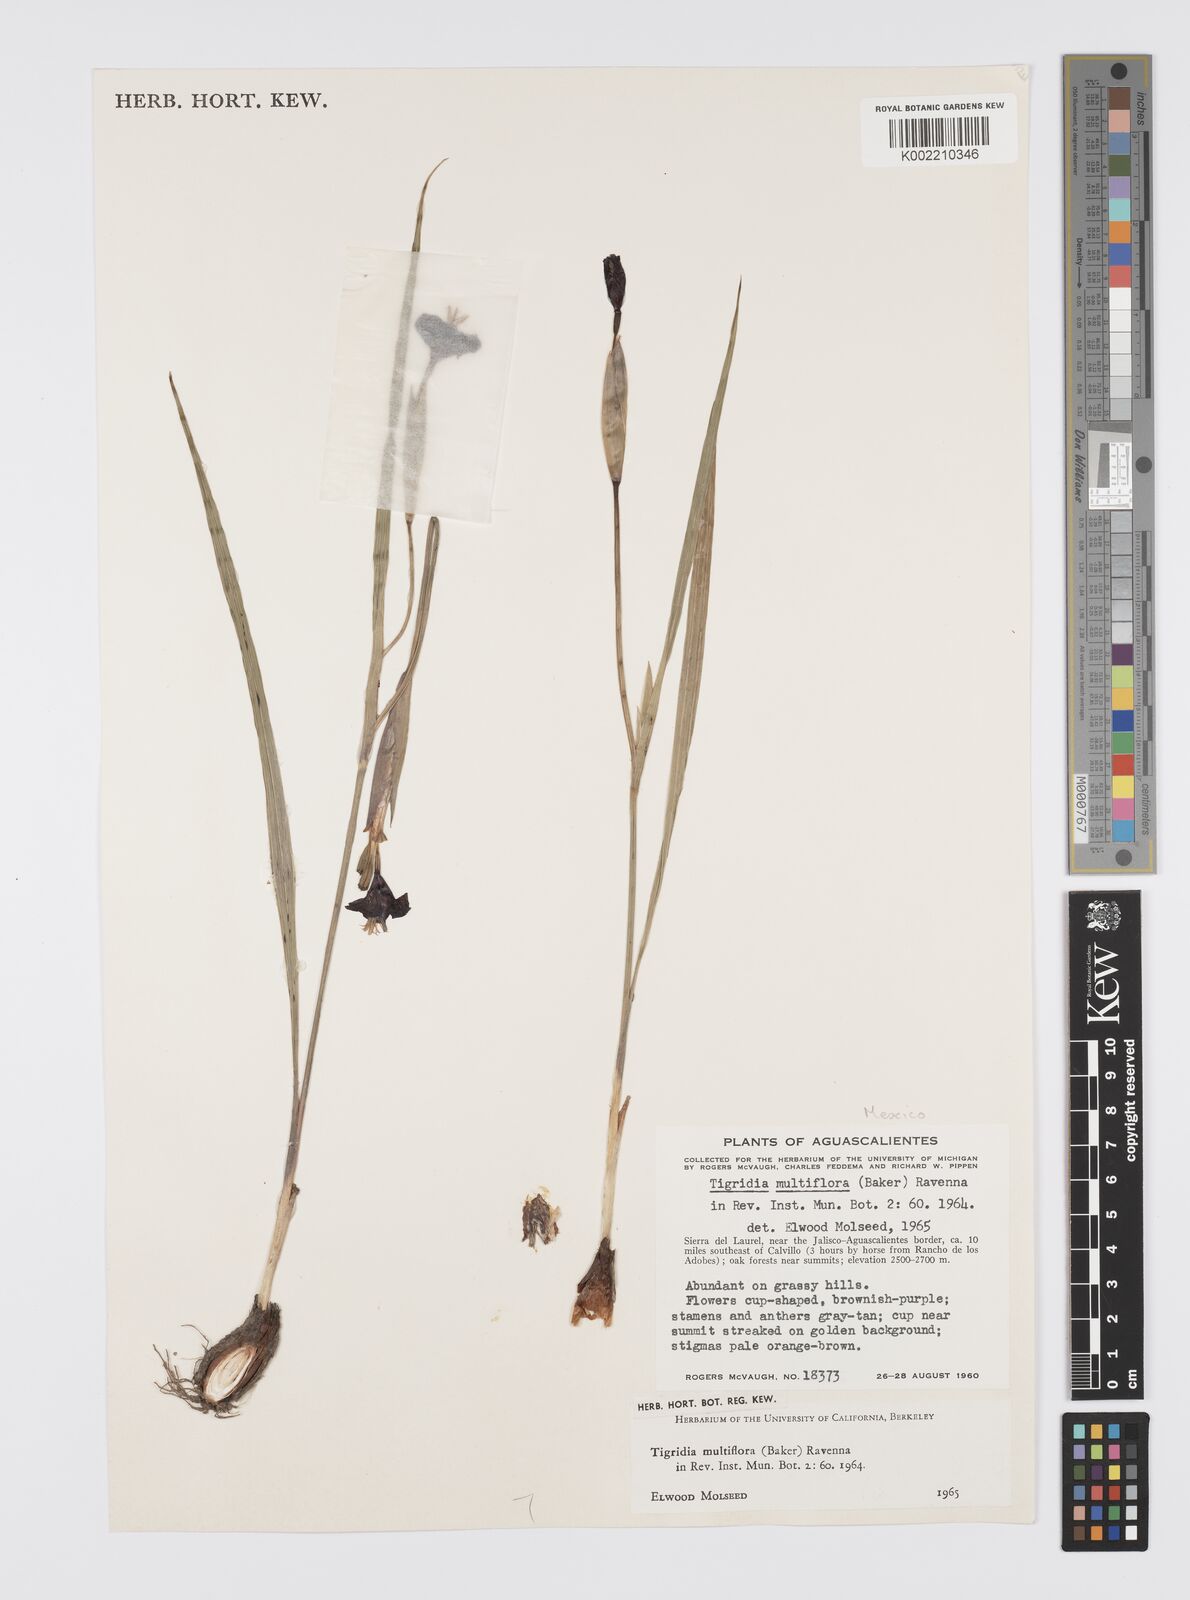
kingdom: Plantae
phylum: Tracheophyta
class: Liliopsida
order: Asparagales
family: Iridaceae
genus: Tigridia
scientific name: Tigridia multiflora
